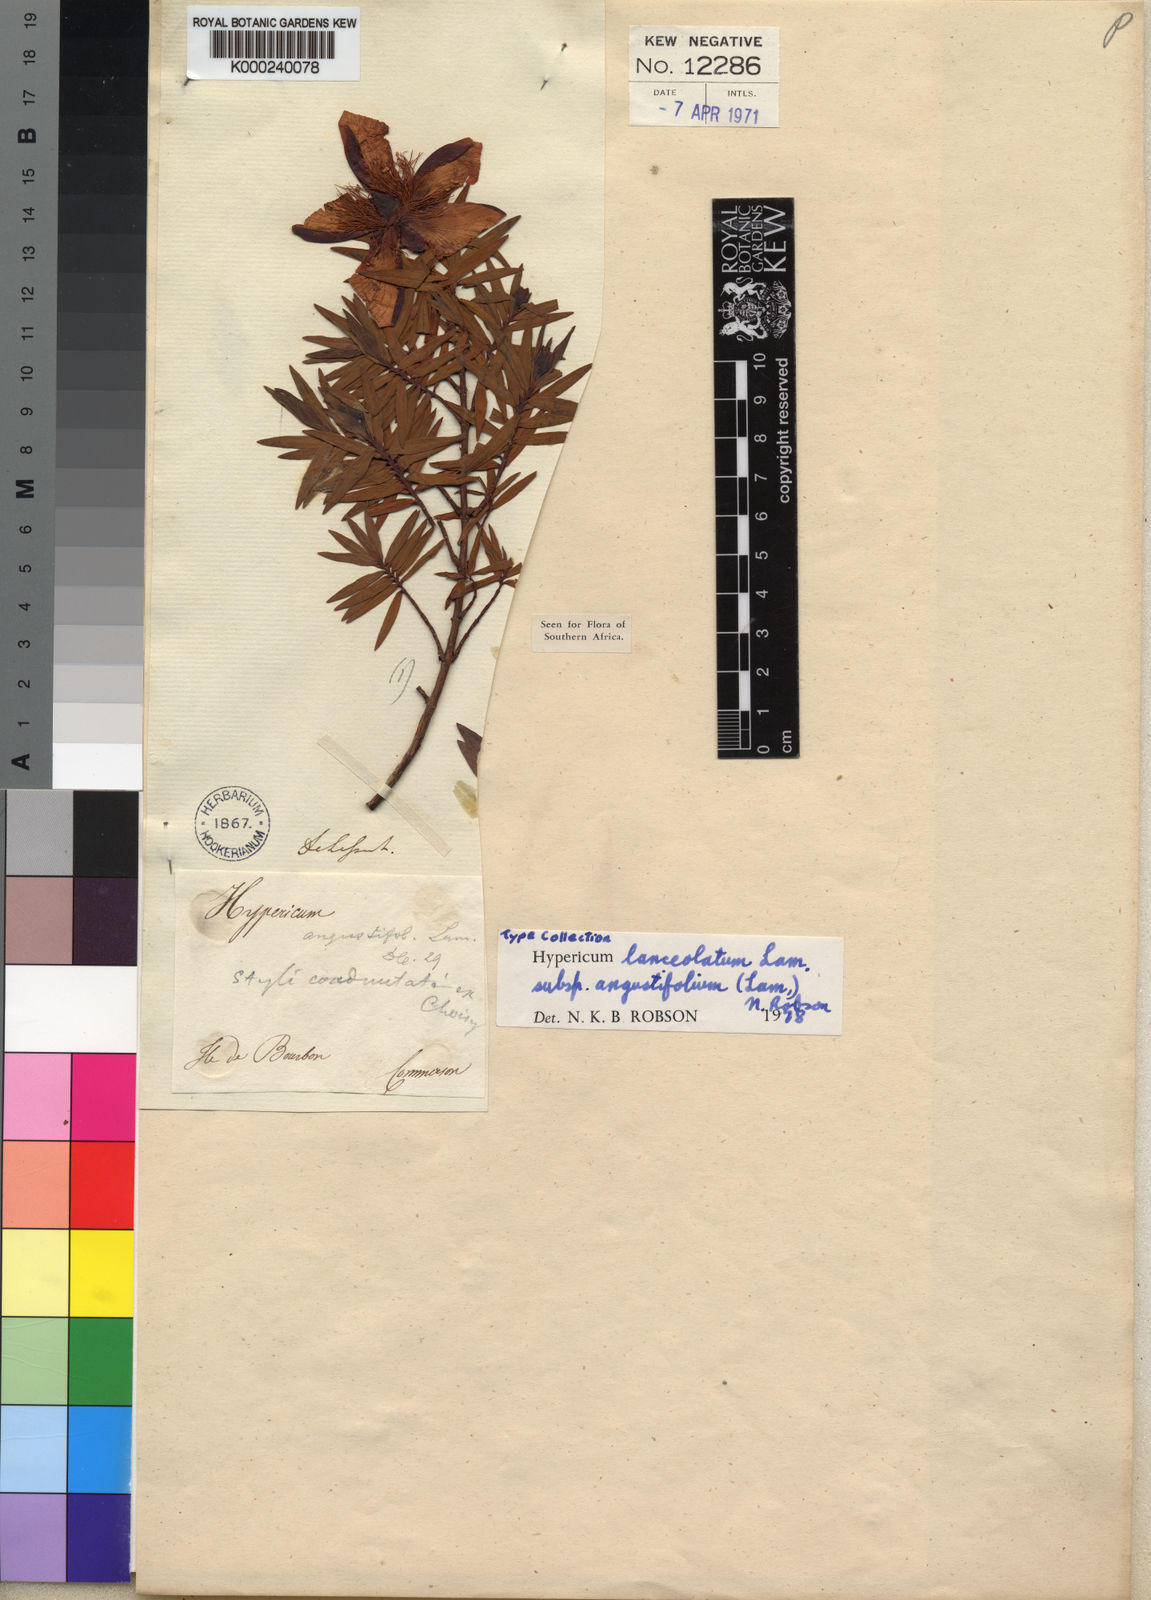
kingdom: Plantae
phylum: Tracheophyta
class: Magnoliopsida
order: Malpighiales
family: Hypericaceae
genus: Hypericum
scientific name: Hypericum veronense
